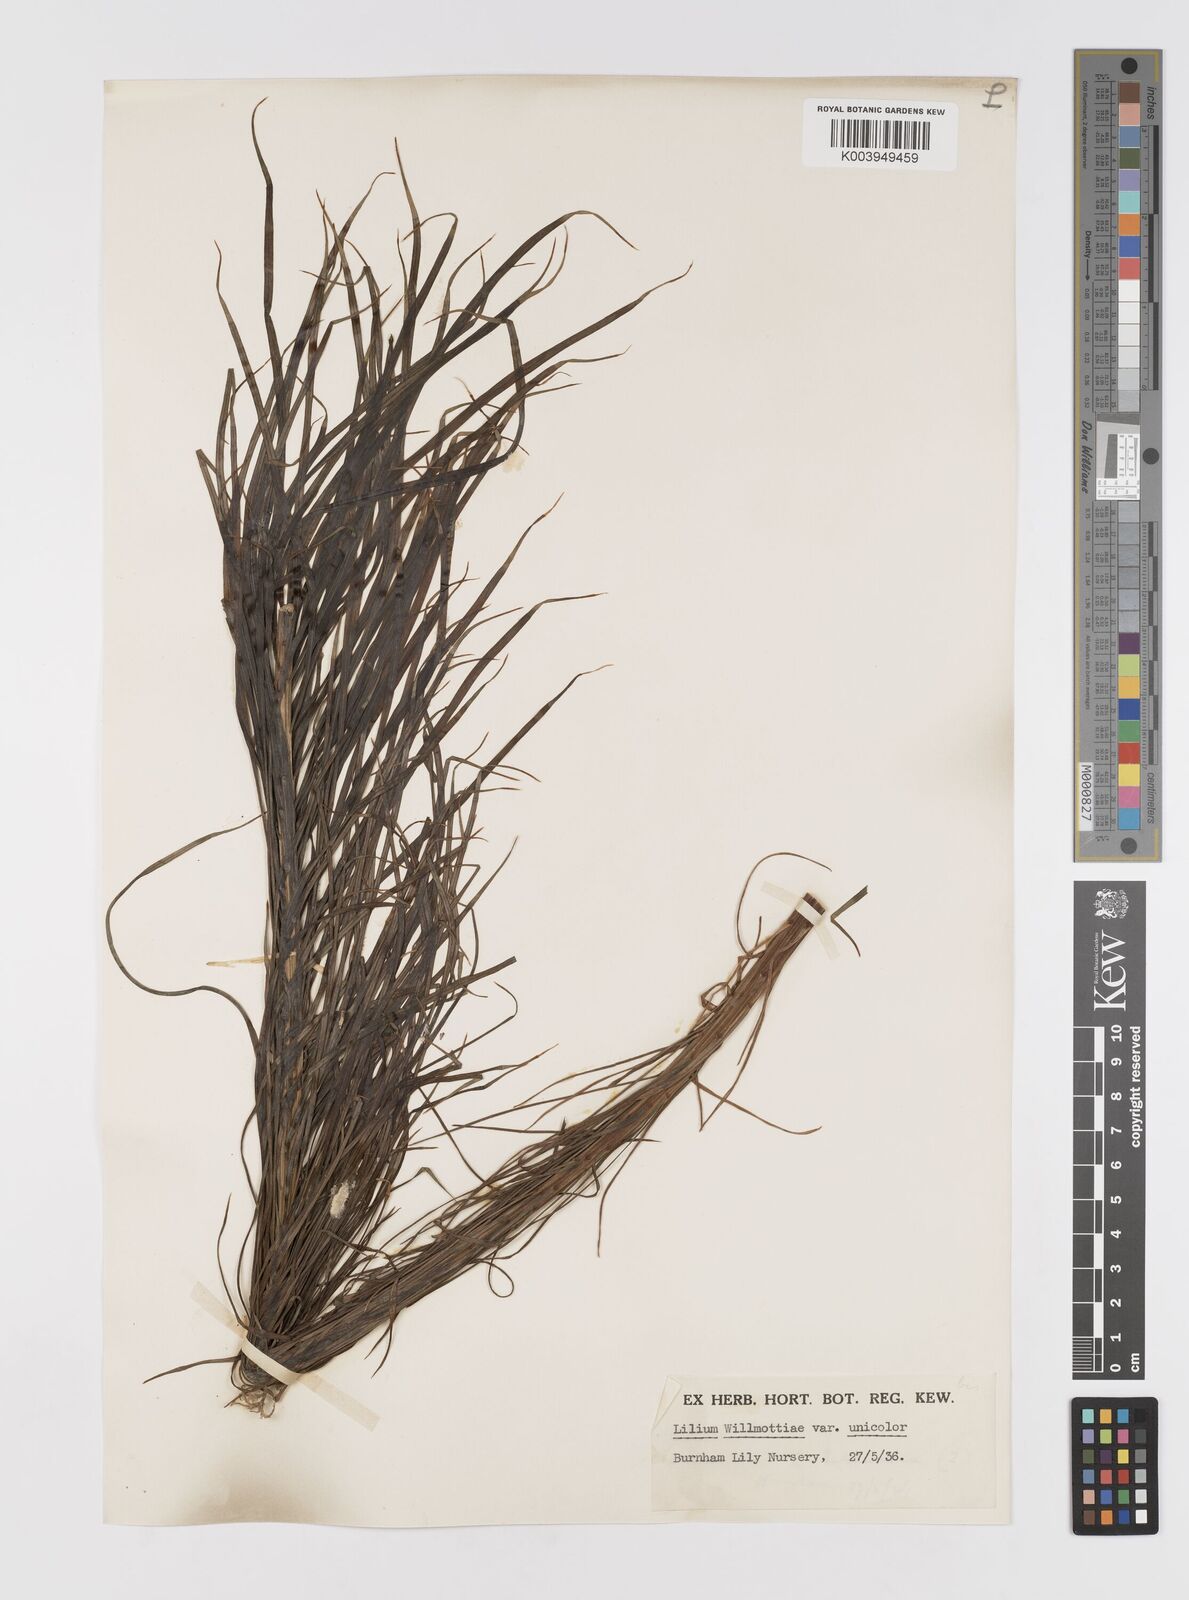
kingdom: Plantae
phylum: Tracheophyta
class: Liliopsida
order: Liliales
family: Liliaceae
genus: Lilium
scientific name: Lilium davidii
